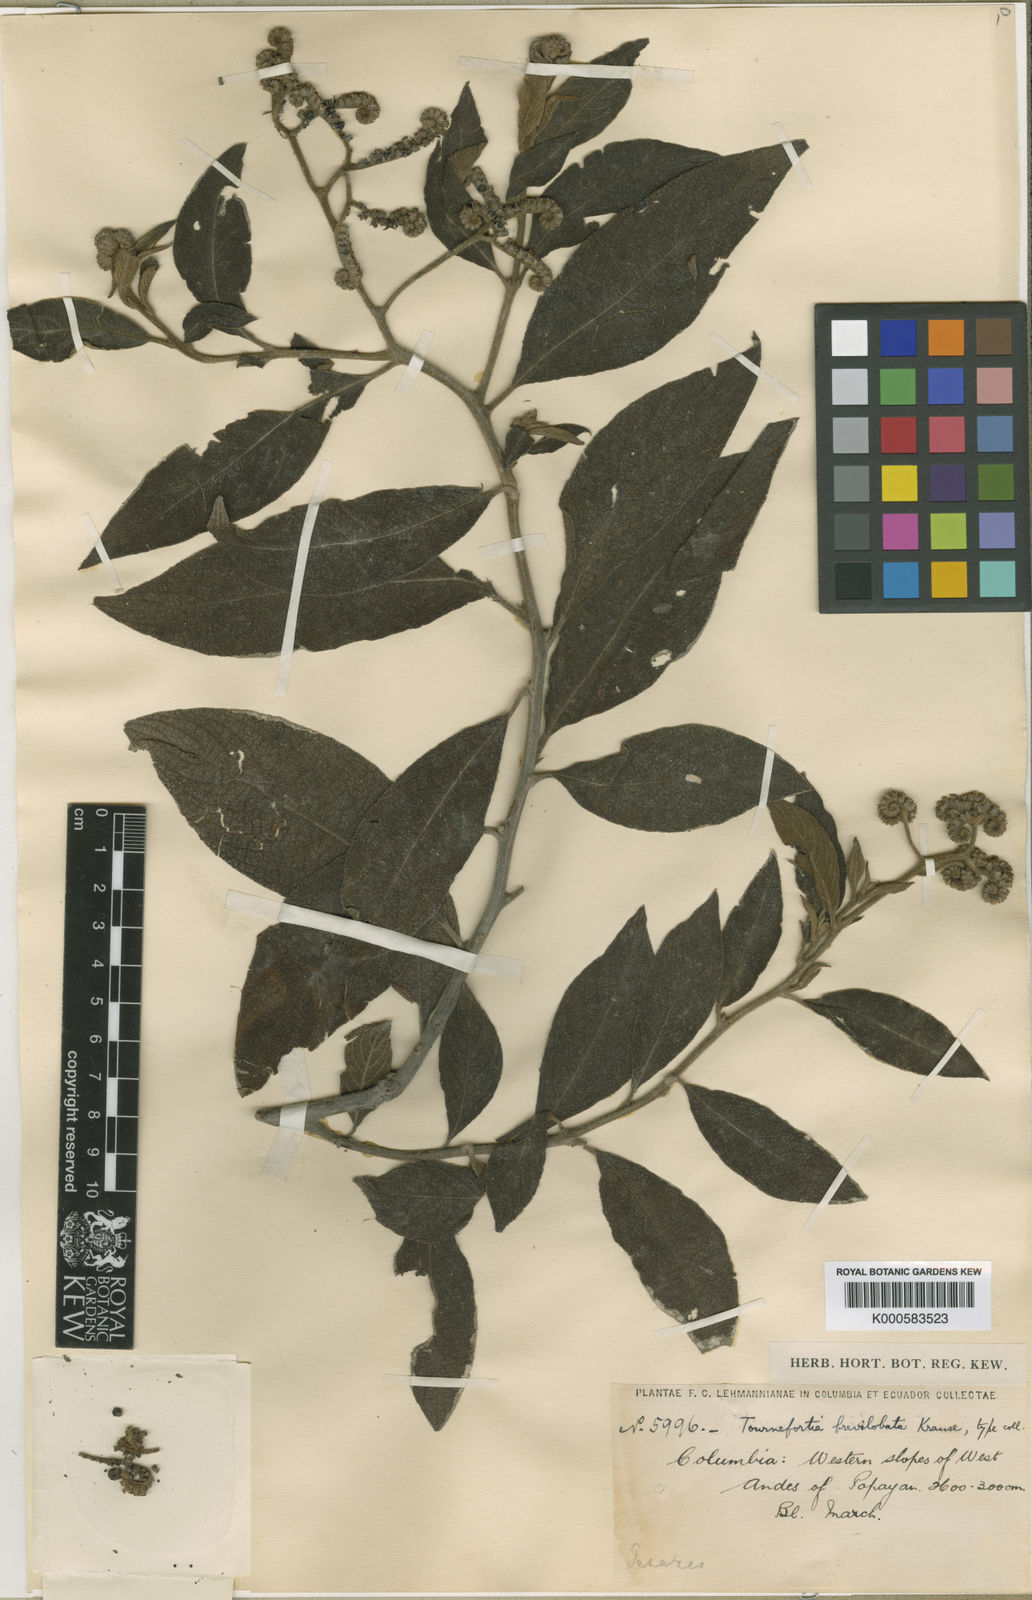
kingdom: Plantae
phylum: Tracheophyta
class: Magnoliopsida
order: Boraginales
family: Heliotropiaceae
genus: Heliotropium
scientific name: Heliotropium brevilobatum
